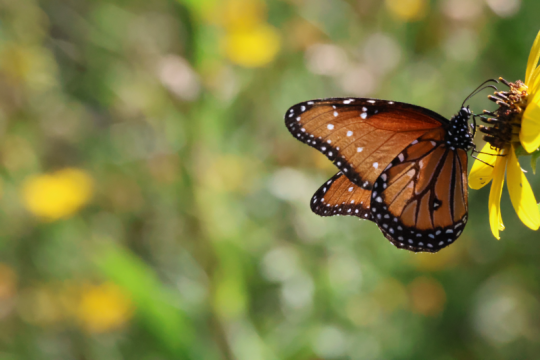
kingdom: Animalia
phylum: Arthropoda
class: Insecta
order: Lepidoptera
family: Nymphalidae
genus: Danaus
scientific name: Danaus gilippus
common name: Queen
